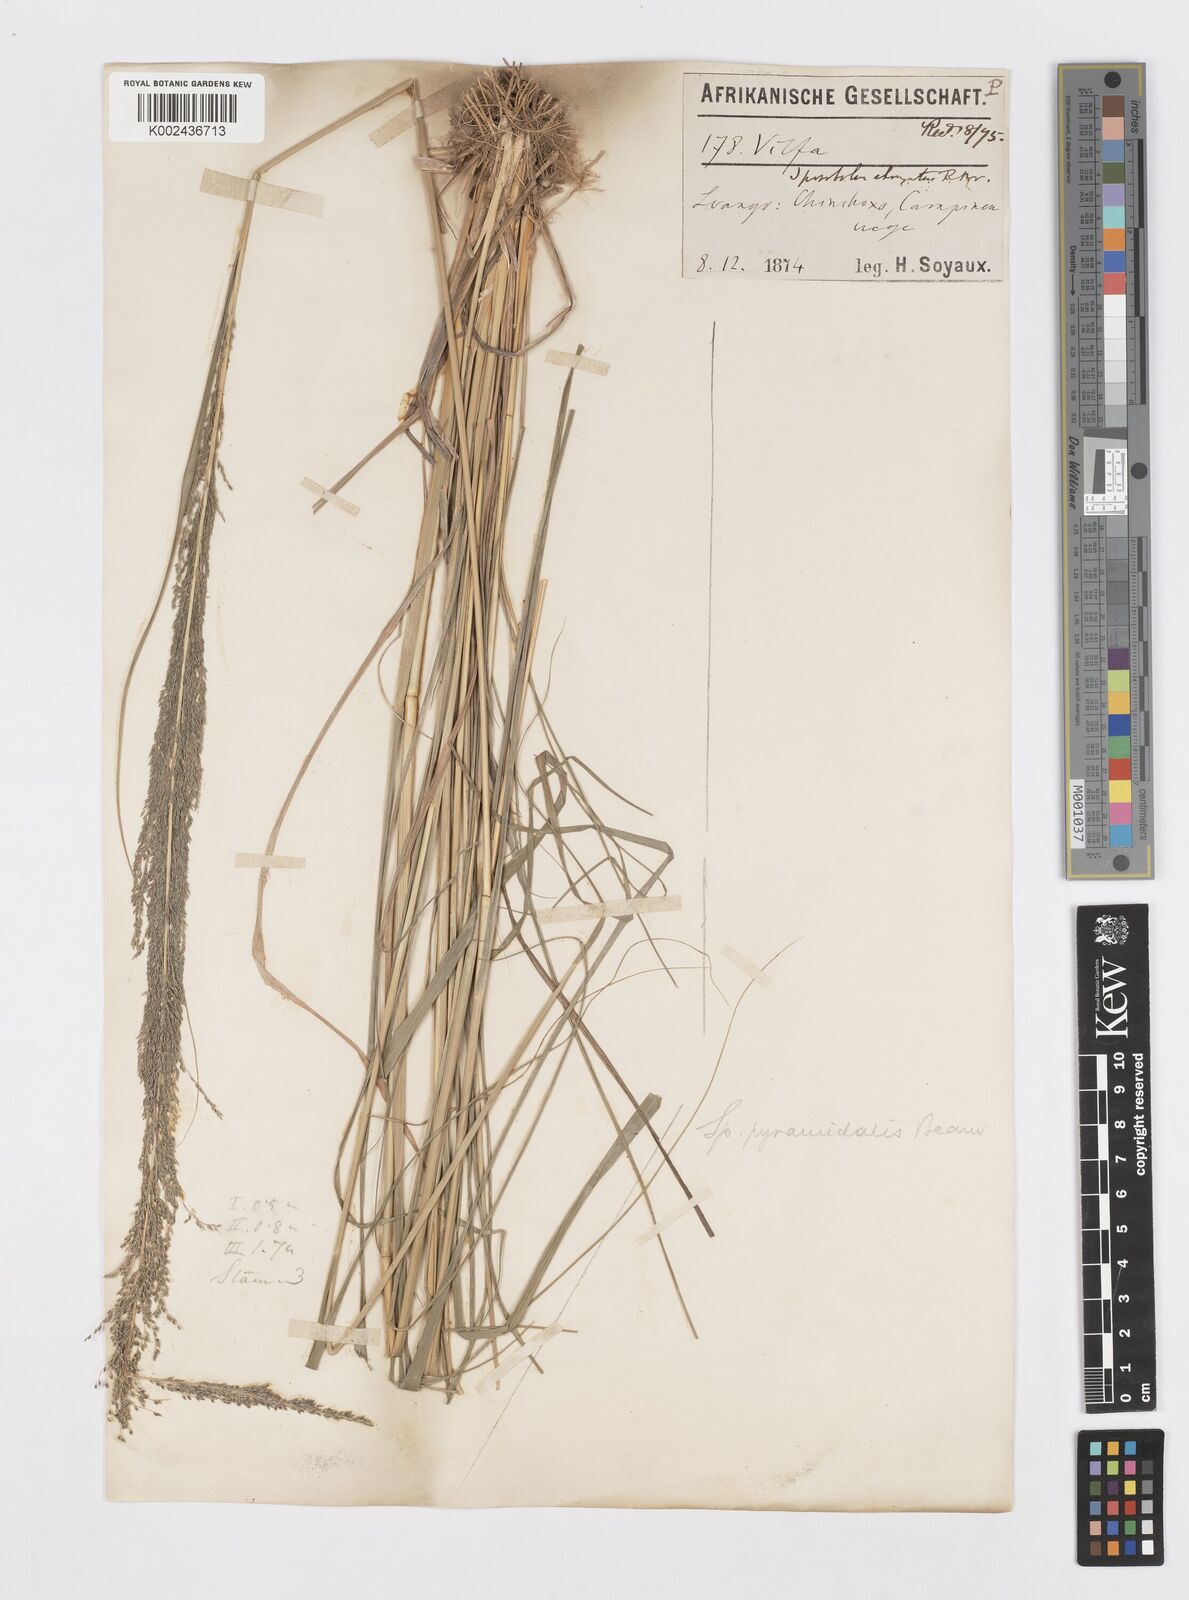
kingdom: Plantae
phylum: Tracheophyta
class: Liliopsida
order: Poales
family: Poaceae
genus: Sporobolus
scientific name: Sporobolus pyramidalis
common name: West indian dropseed
